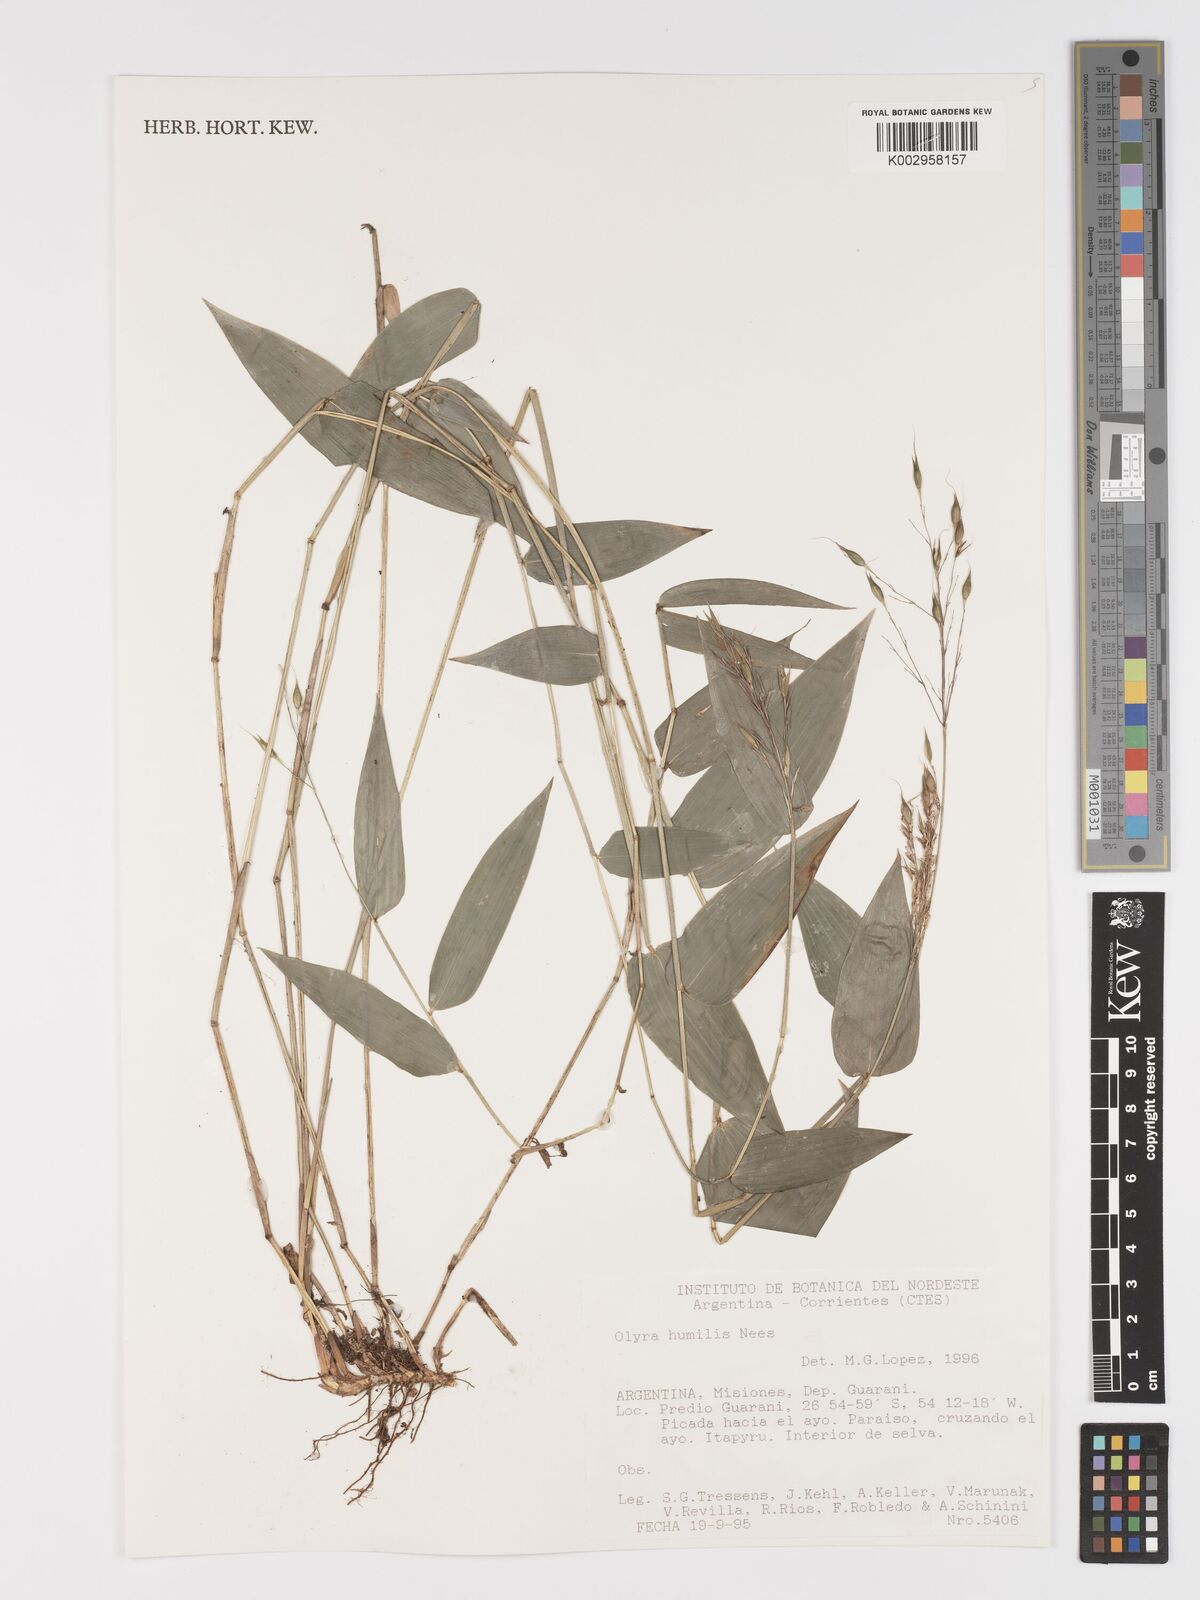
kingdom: Plantae
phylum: Tracheophyta
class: Liliopsida
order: Poales
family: Poaceae
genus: Olyra
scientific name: Olyra humilis
